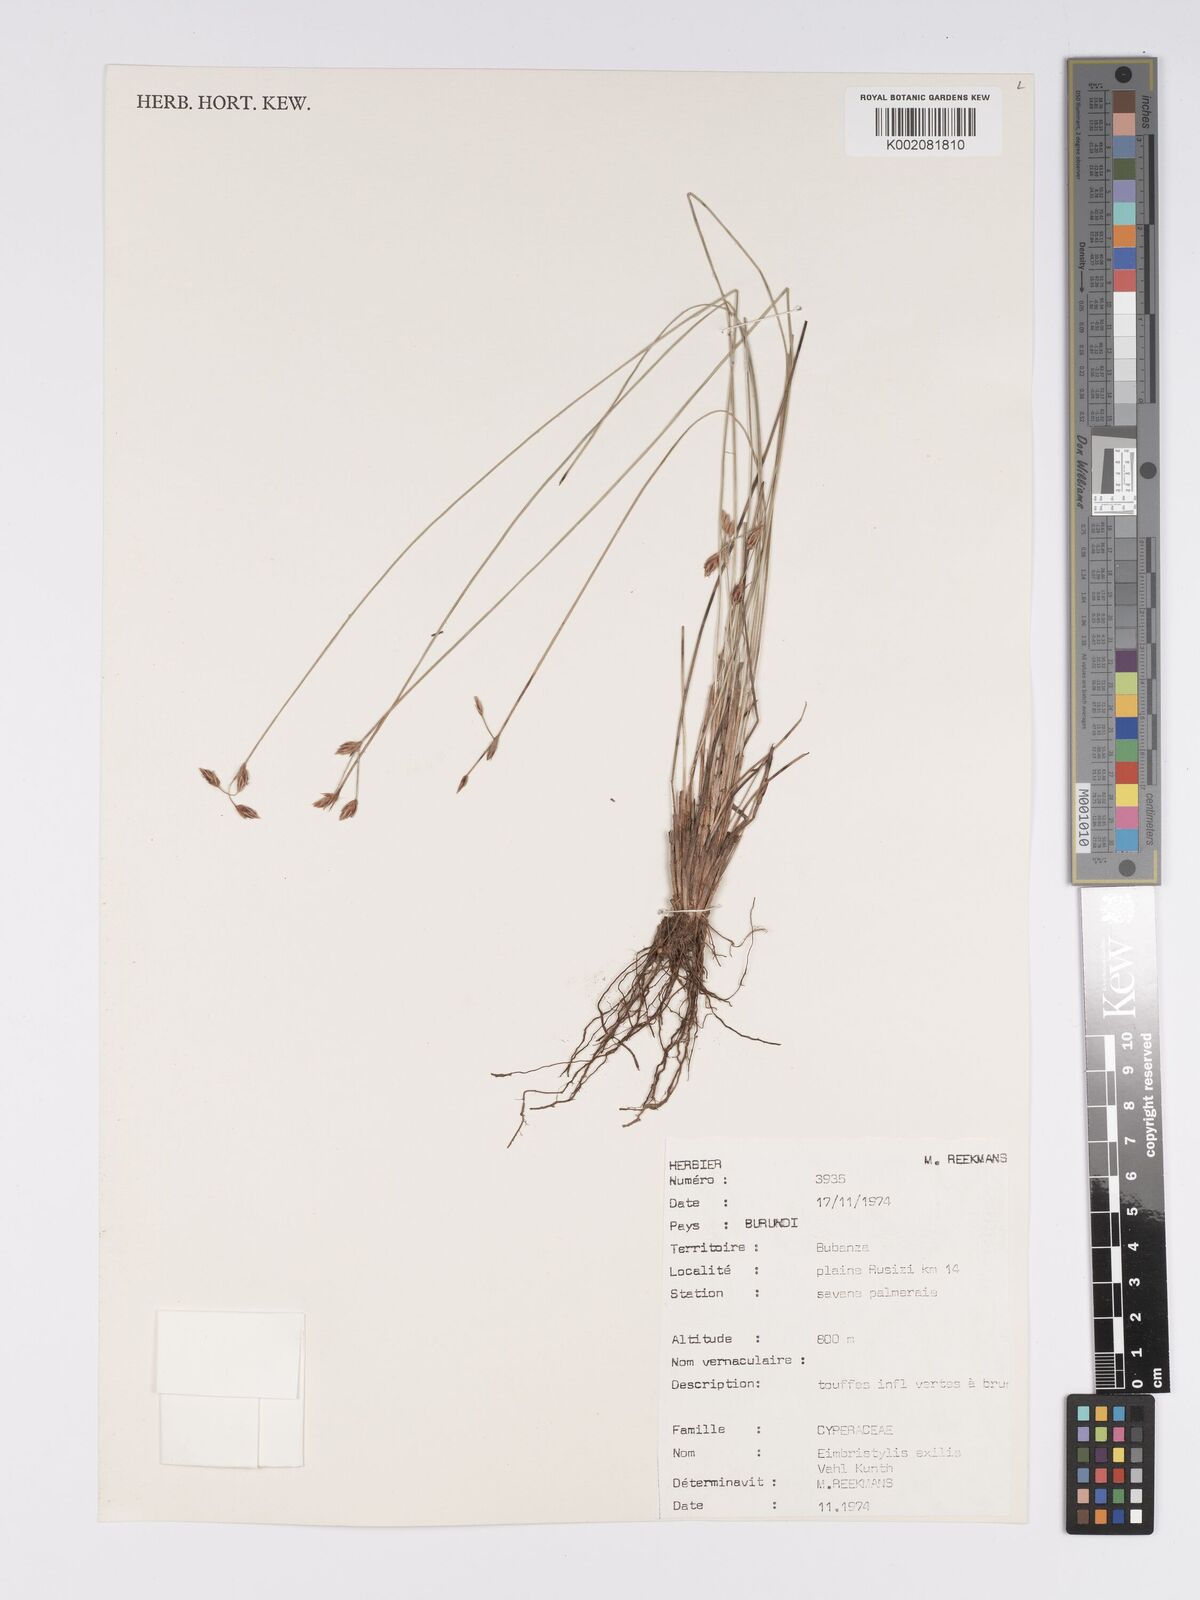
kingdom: Plantae
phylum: Tracheophyta
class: Liliopsida
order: Poales
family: Cyperaceae
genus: Bulbostylis
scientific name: Bulbostylis hispidula
